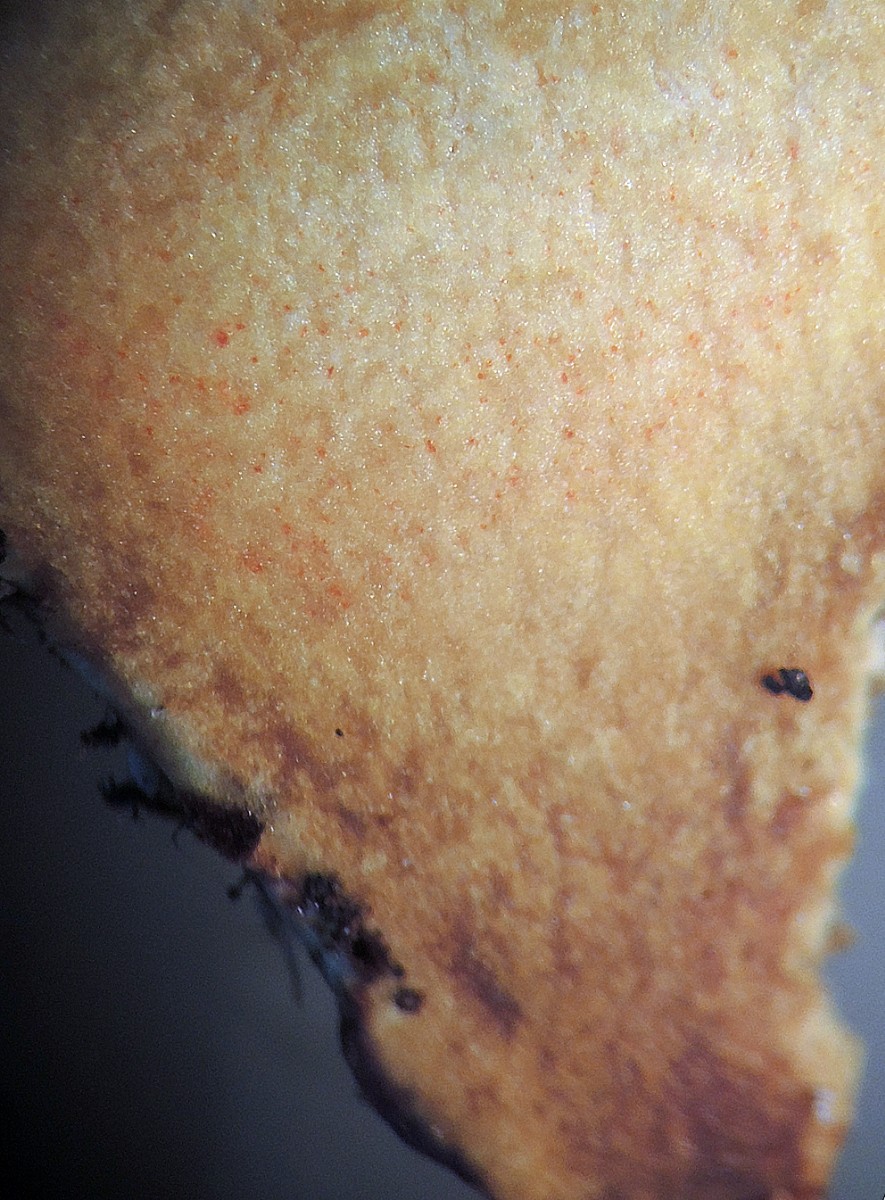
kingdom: Fungi
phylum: Basidiomycota
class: Agaricomycetes
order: Boletales
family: Boletaceae
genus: Hortiboletus
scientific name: Hortiboletus bubalinus
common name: aurora-rørhat
